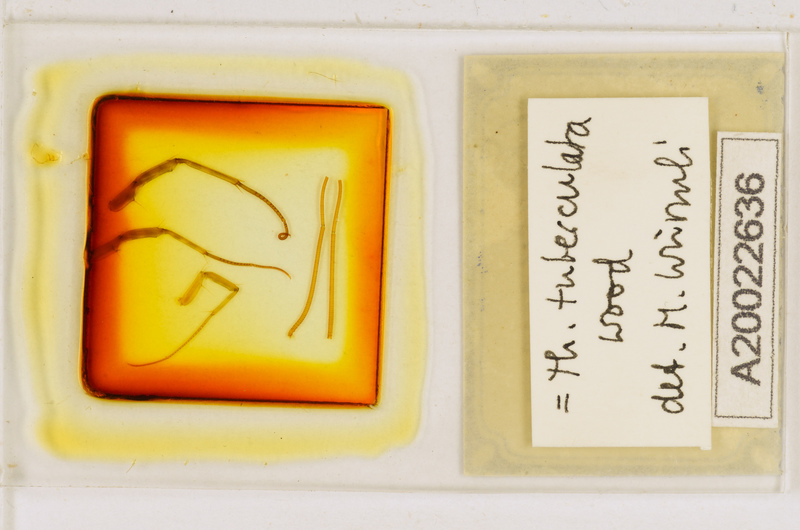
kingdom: Animalia
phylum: Arthropoda
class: Chilopoda
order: Scutigeromorpha
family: Scutigeridae
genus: Thereuonema
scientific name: Thereuonema tuberculata
